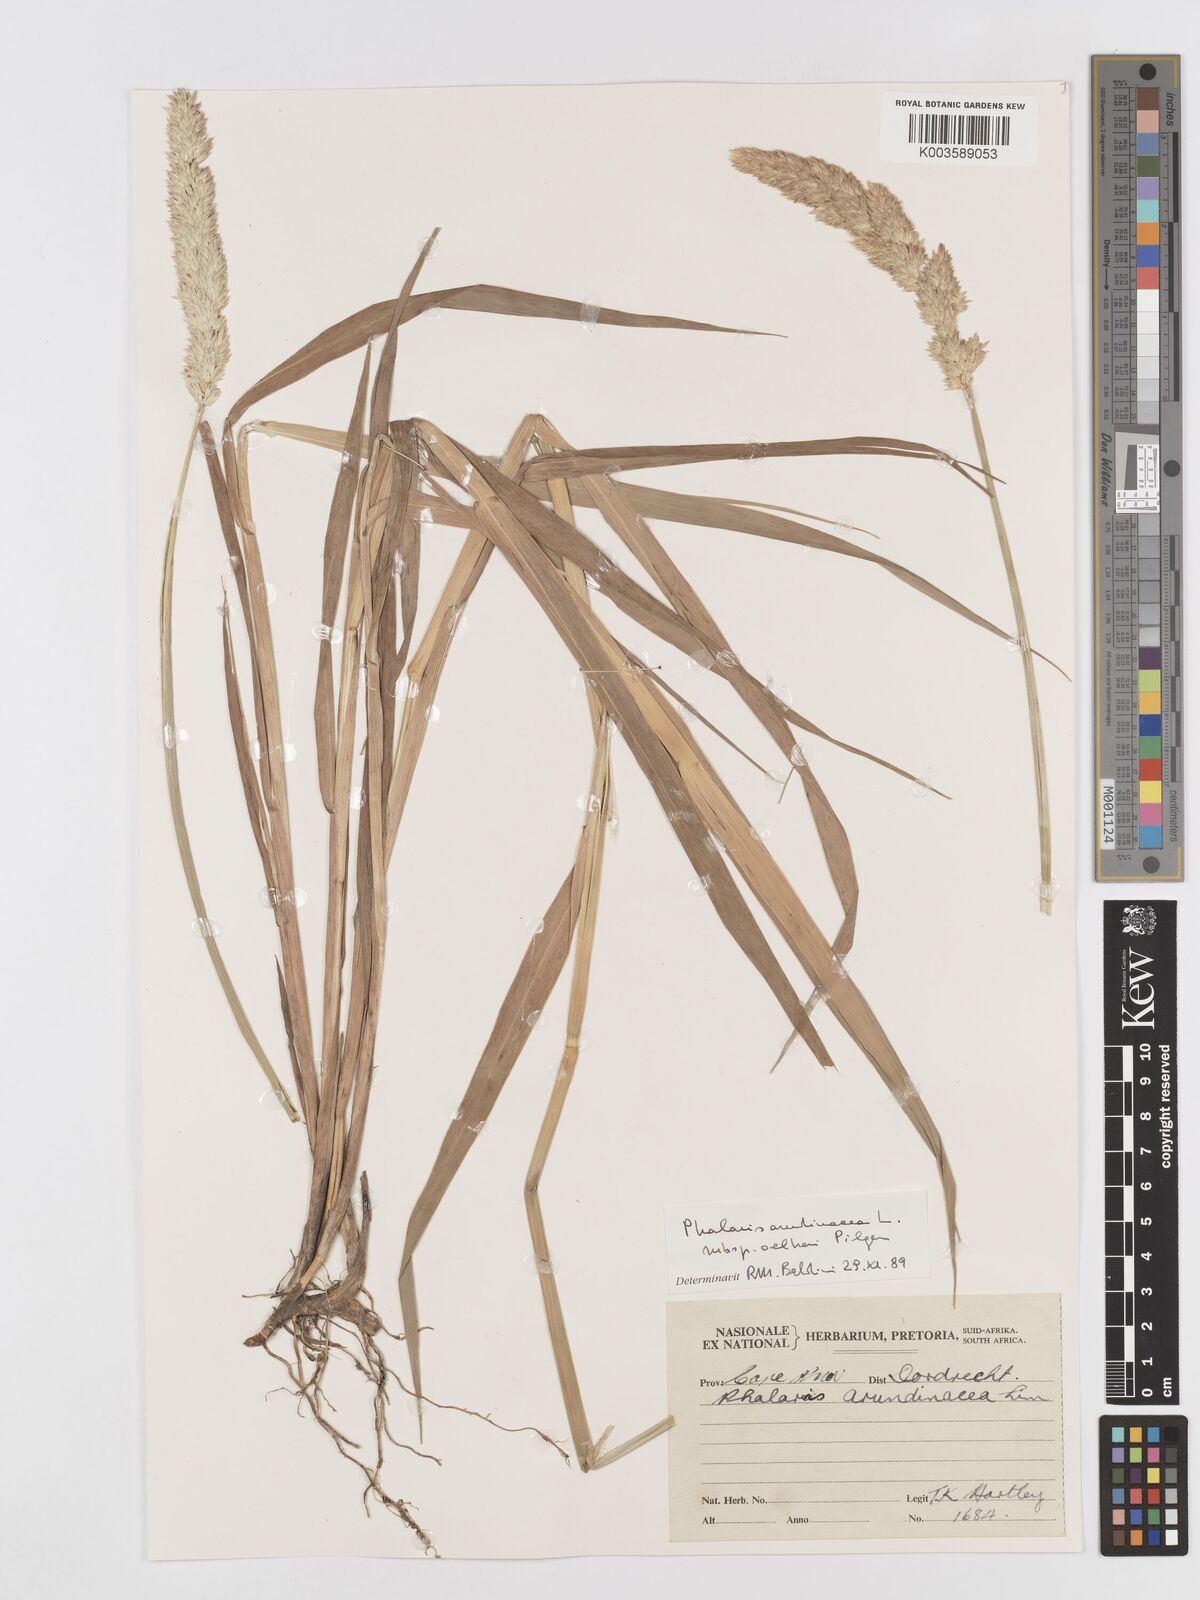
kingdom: Plantae
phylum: Tracheophyta
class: Liliopsida
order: Poales
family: Poaceae
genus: Phalaris
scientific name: Phalaris arundinacea
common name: Reed canary-grass
